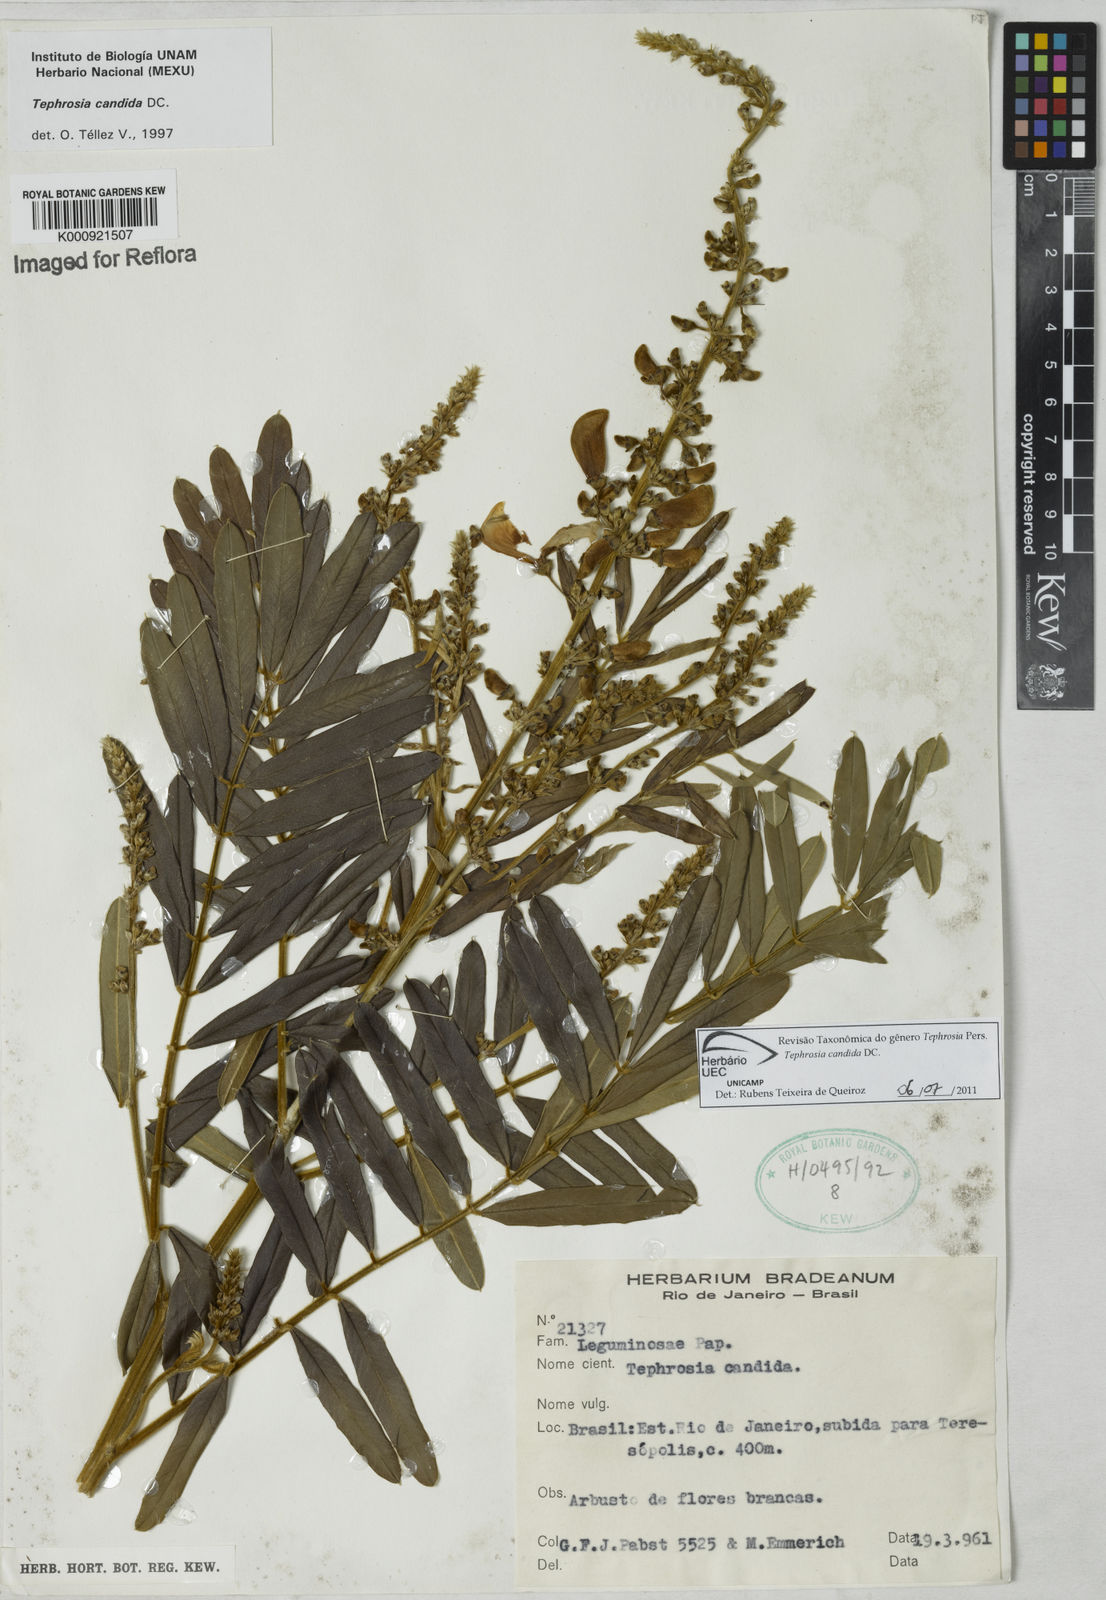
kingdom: Plantae
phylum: Tracheophyta
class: Magnoliopsida
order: Fabales
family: Fabaceae
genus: Tephrosia
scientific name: Tephrosia candida
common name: White tephrosia
